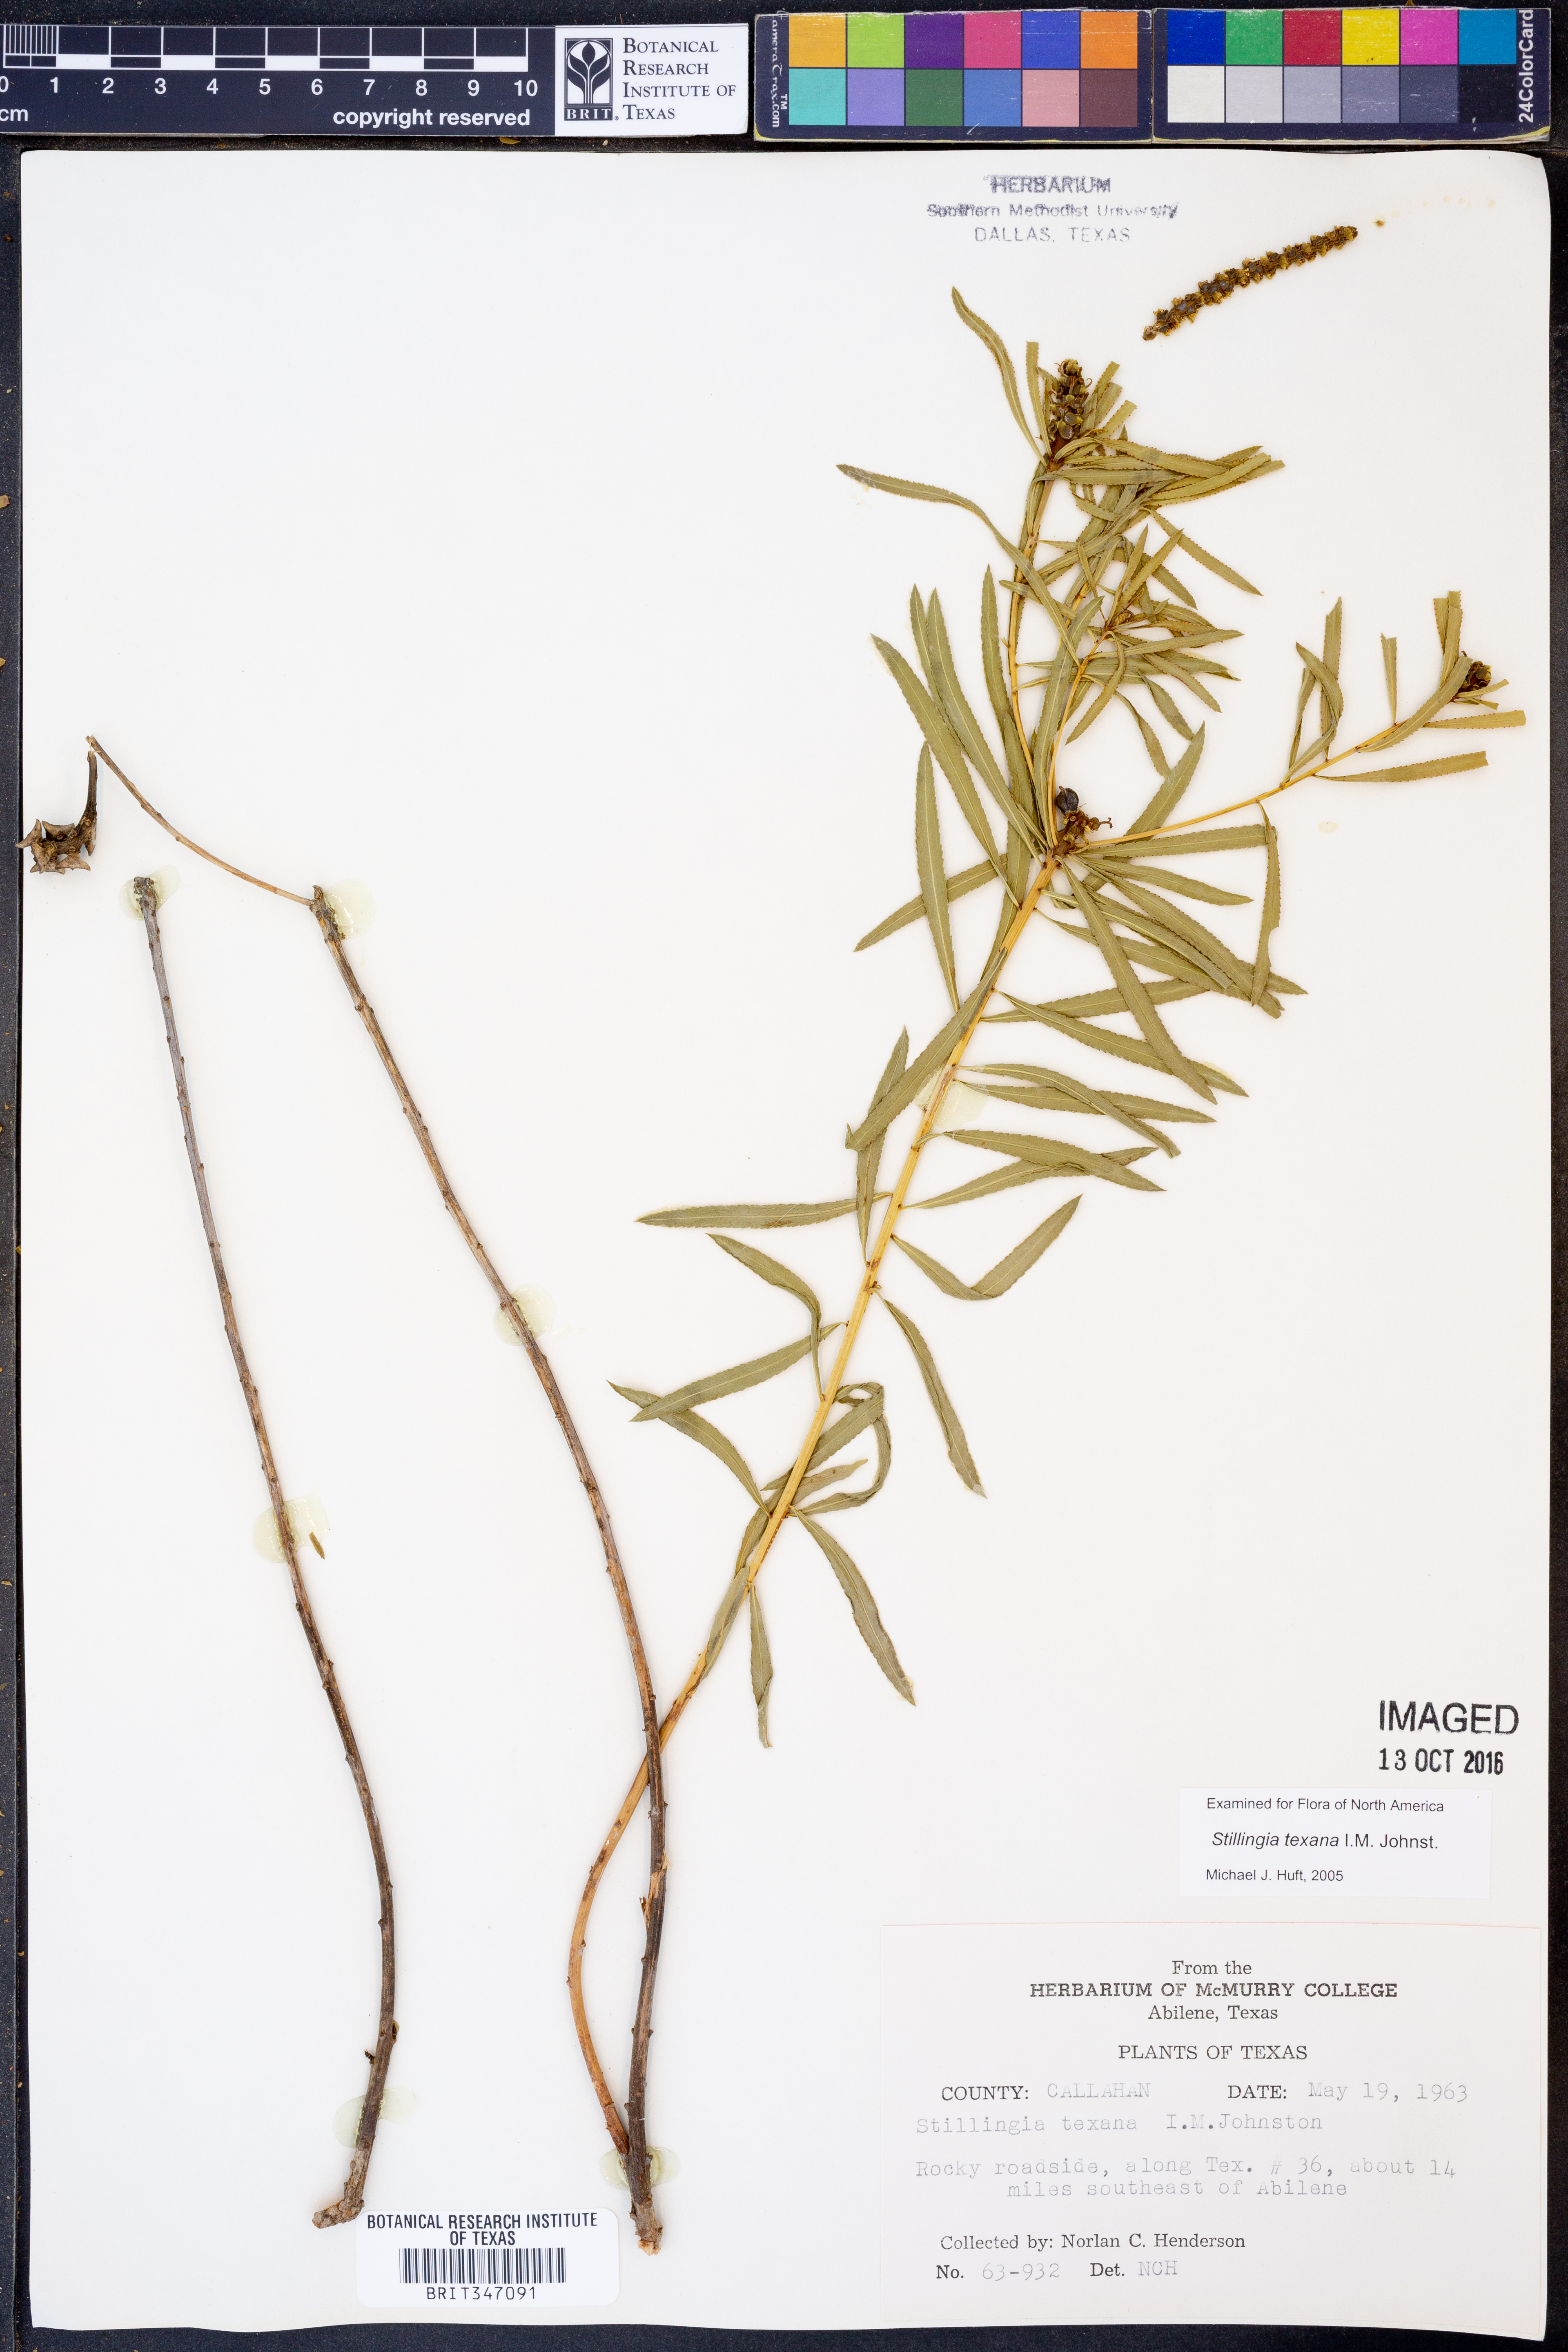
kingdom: Plantae
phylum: Tracheophyta
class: Magnoliopsida
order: Malpighiales
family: Euphorbiaceae
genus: Stillingia
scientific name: Stillingia texana
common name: Texas stillingia
